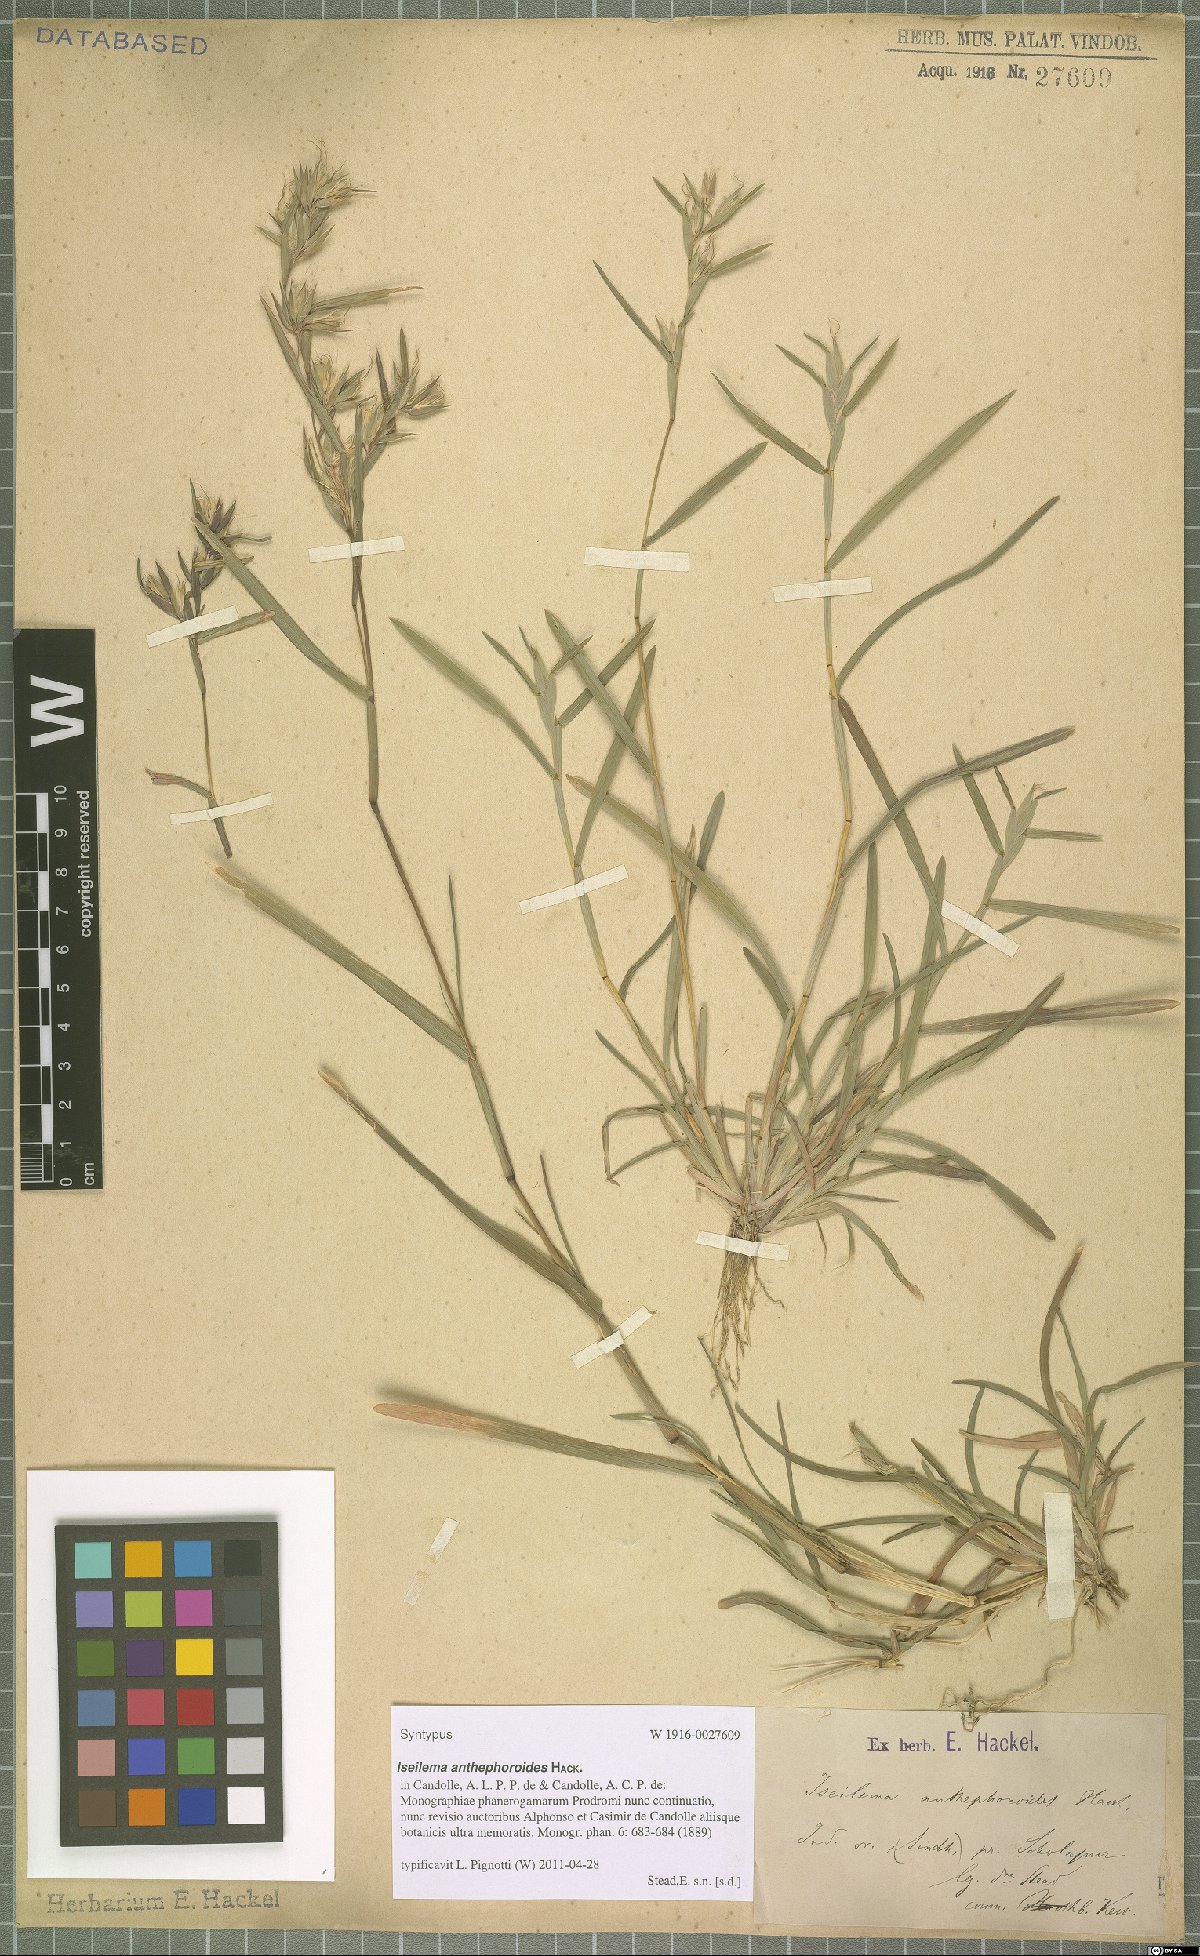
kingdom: Plantae
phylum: Tracheophyta
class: Liliopsida
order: Poales
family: Poaceae
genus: Iseilema
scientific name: Iseilema anthephoroides
